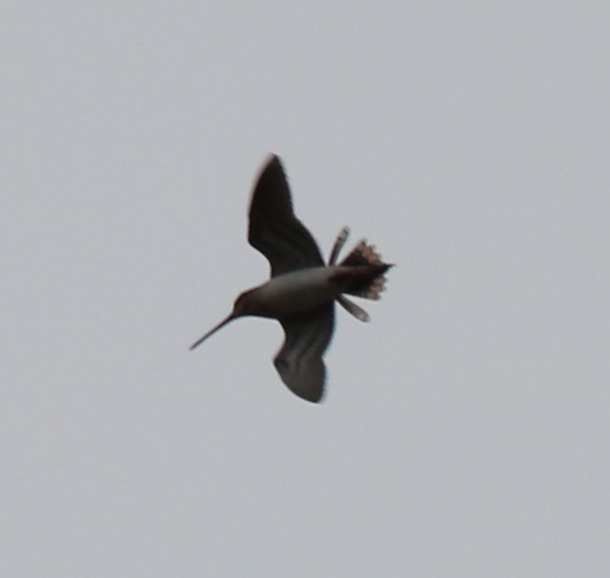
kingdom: Animalia
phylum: Chordata
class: Aves
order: Charadriiformes
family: Scolopacidae
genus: Gallinago
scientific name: Gallinago gallinago
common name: Dobbeltbekkasin
